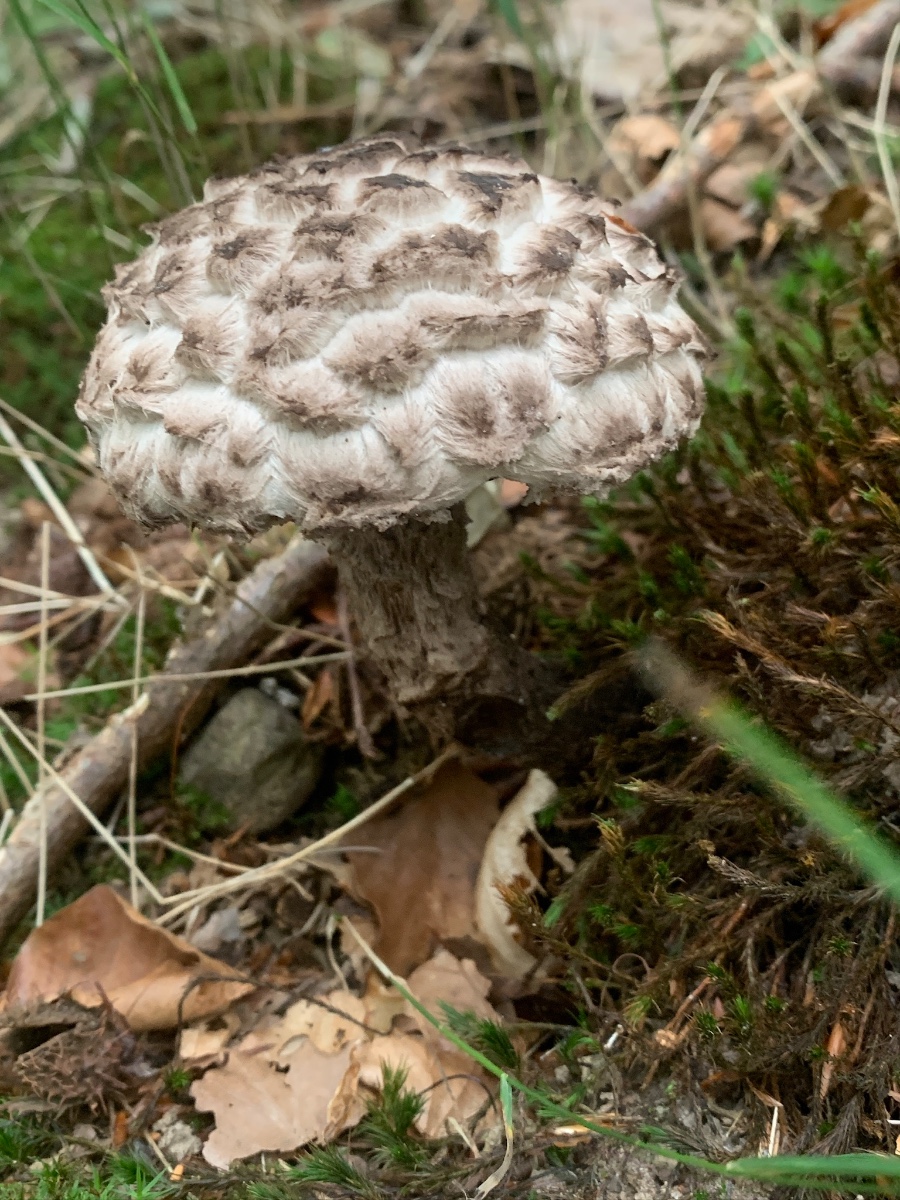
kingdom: Fungi
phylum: Basidiomycota
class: Agaricomycetes
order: Boletales
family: Boletaceae
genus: Strobilomyces
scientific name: Strobilomyces strobilaceus
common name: koglerørhat
